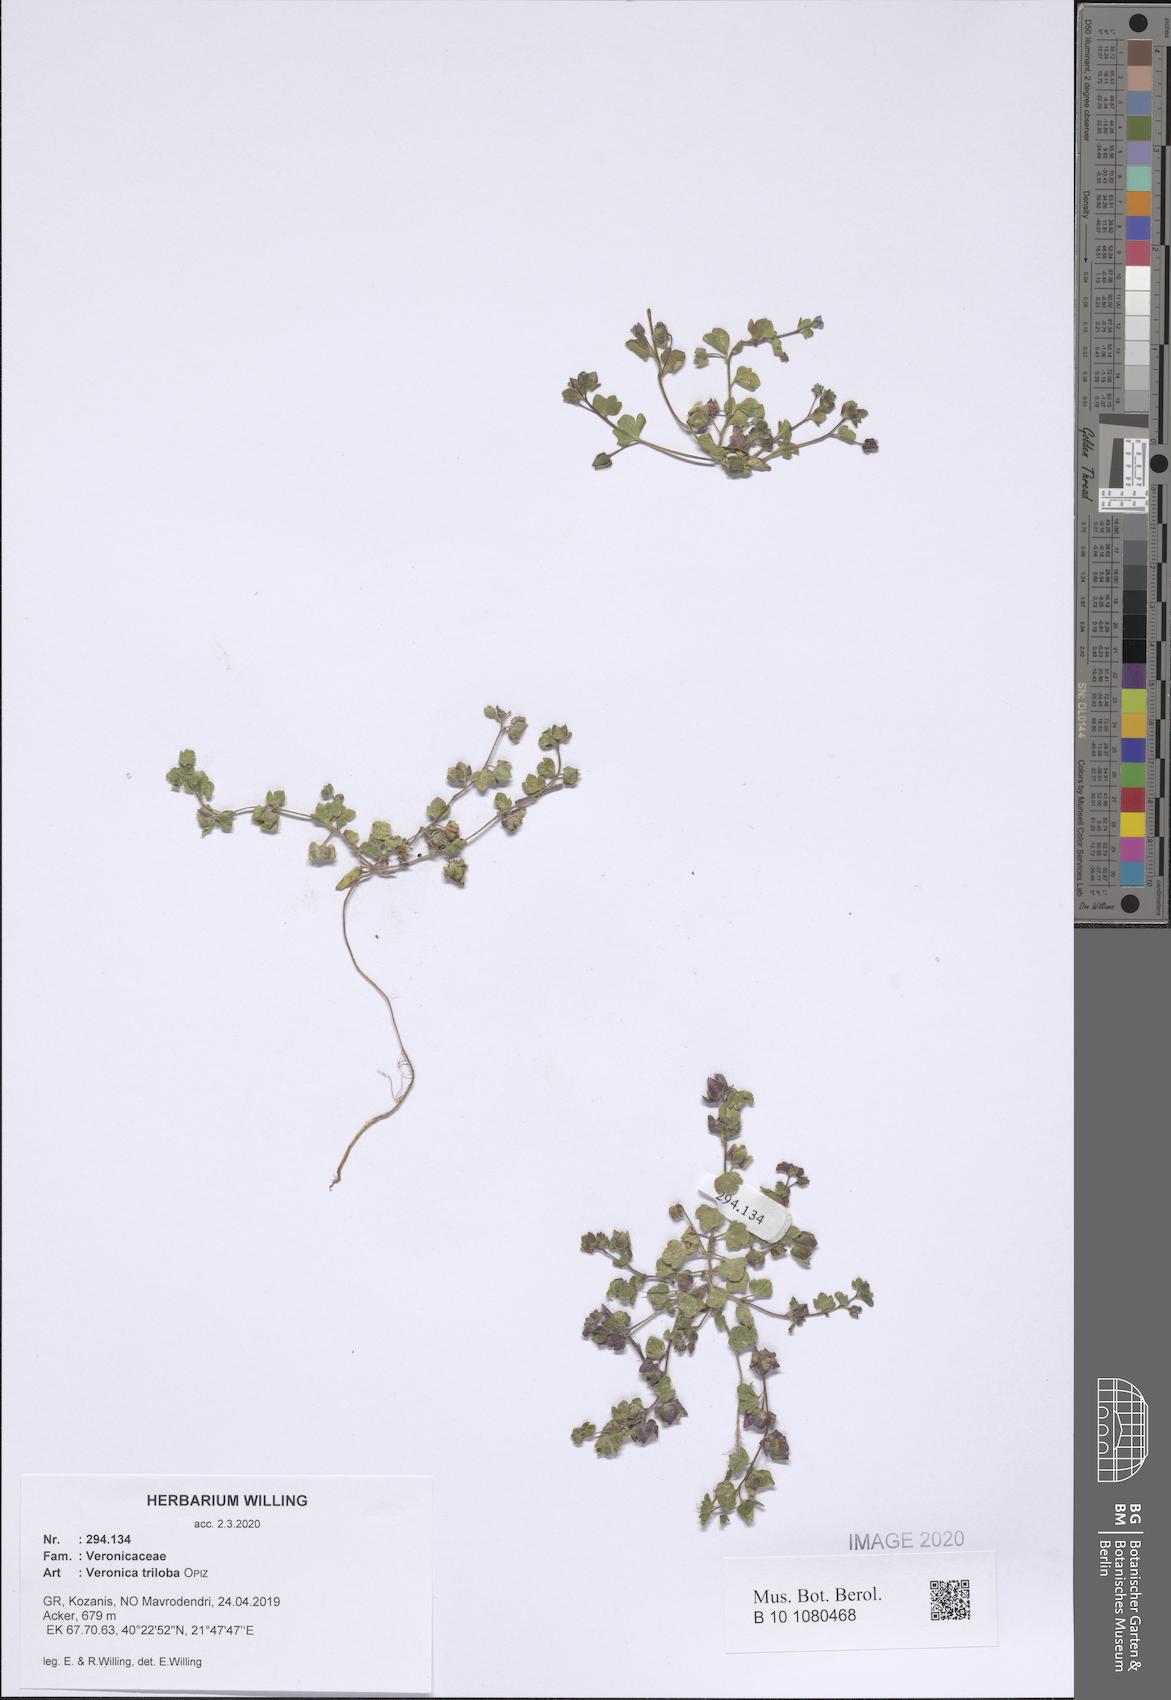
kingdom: Plantae
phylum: Tracheophyta
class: Magnoliopsida
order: Lamiales
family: Plantaginaceae
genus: Veronica
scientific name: Veronica triloba
